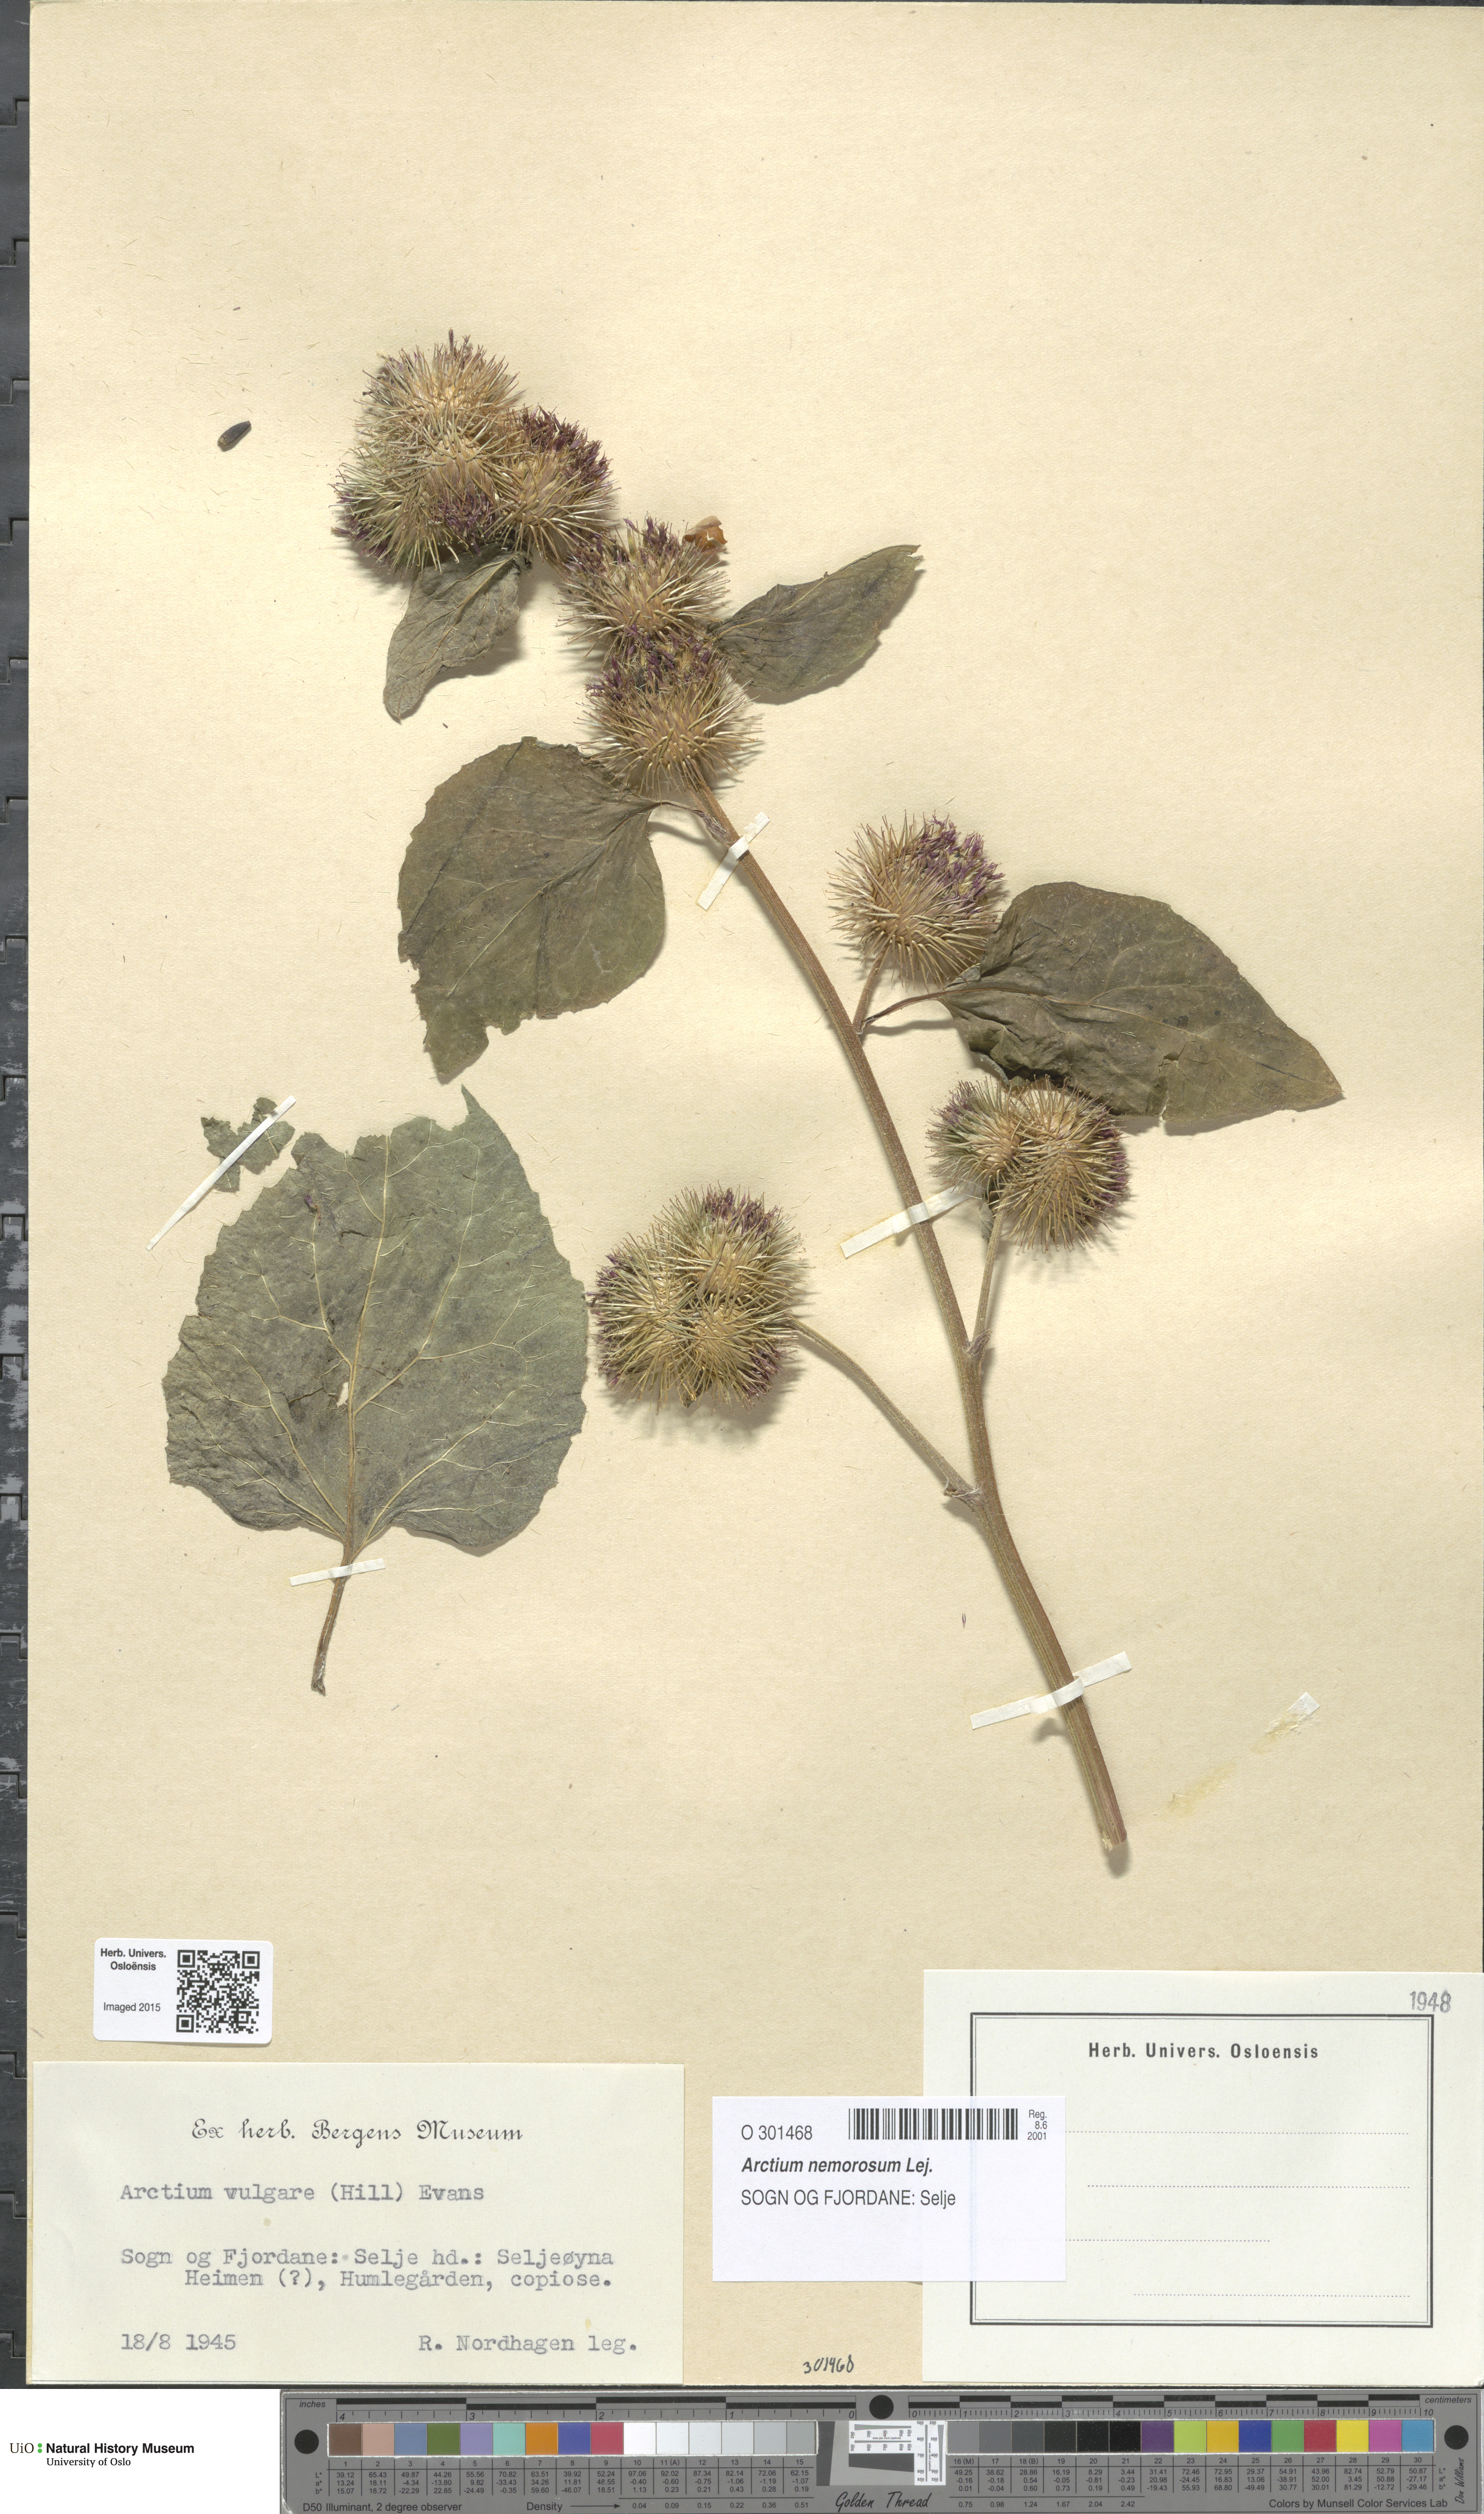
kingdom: Plantae
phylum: Tracheophyta
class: Magnoliopsida
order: Asterales
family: Asteraceae
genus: Arctium
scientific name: Arctium nemorosum
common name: Wood burdock
